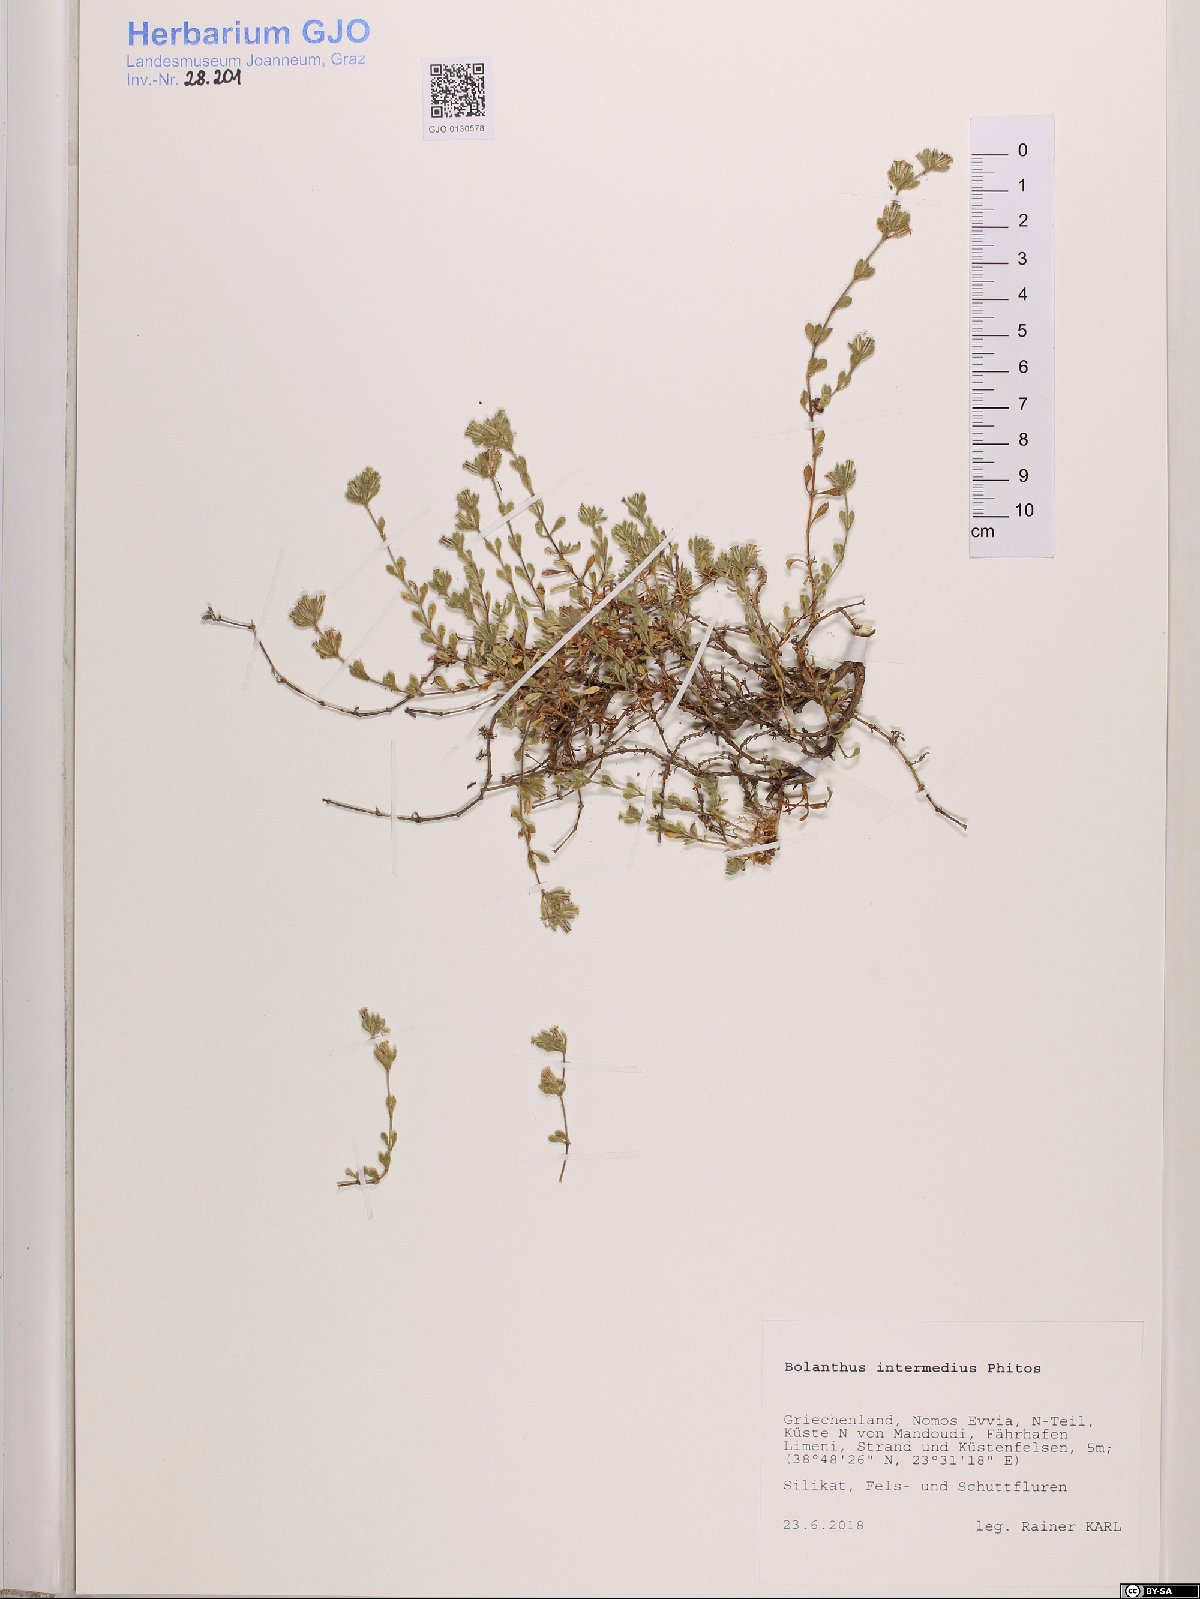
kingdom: Plantae
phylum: Tracheophyta
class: Magnoliopsida
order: Caryophyllales
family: Caryophyllaceae
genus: Graecobolanthus
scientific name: Graecobolanthus intermedius
